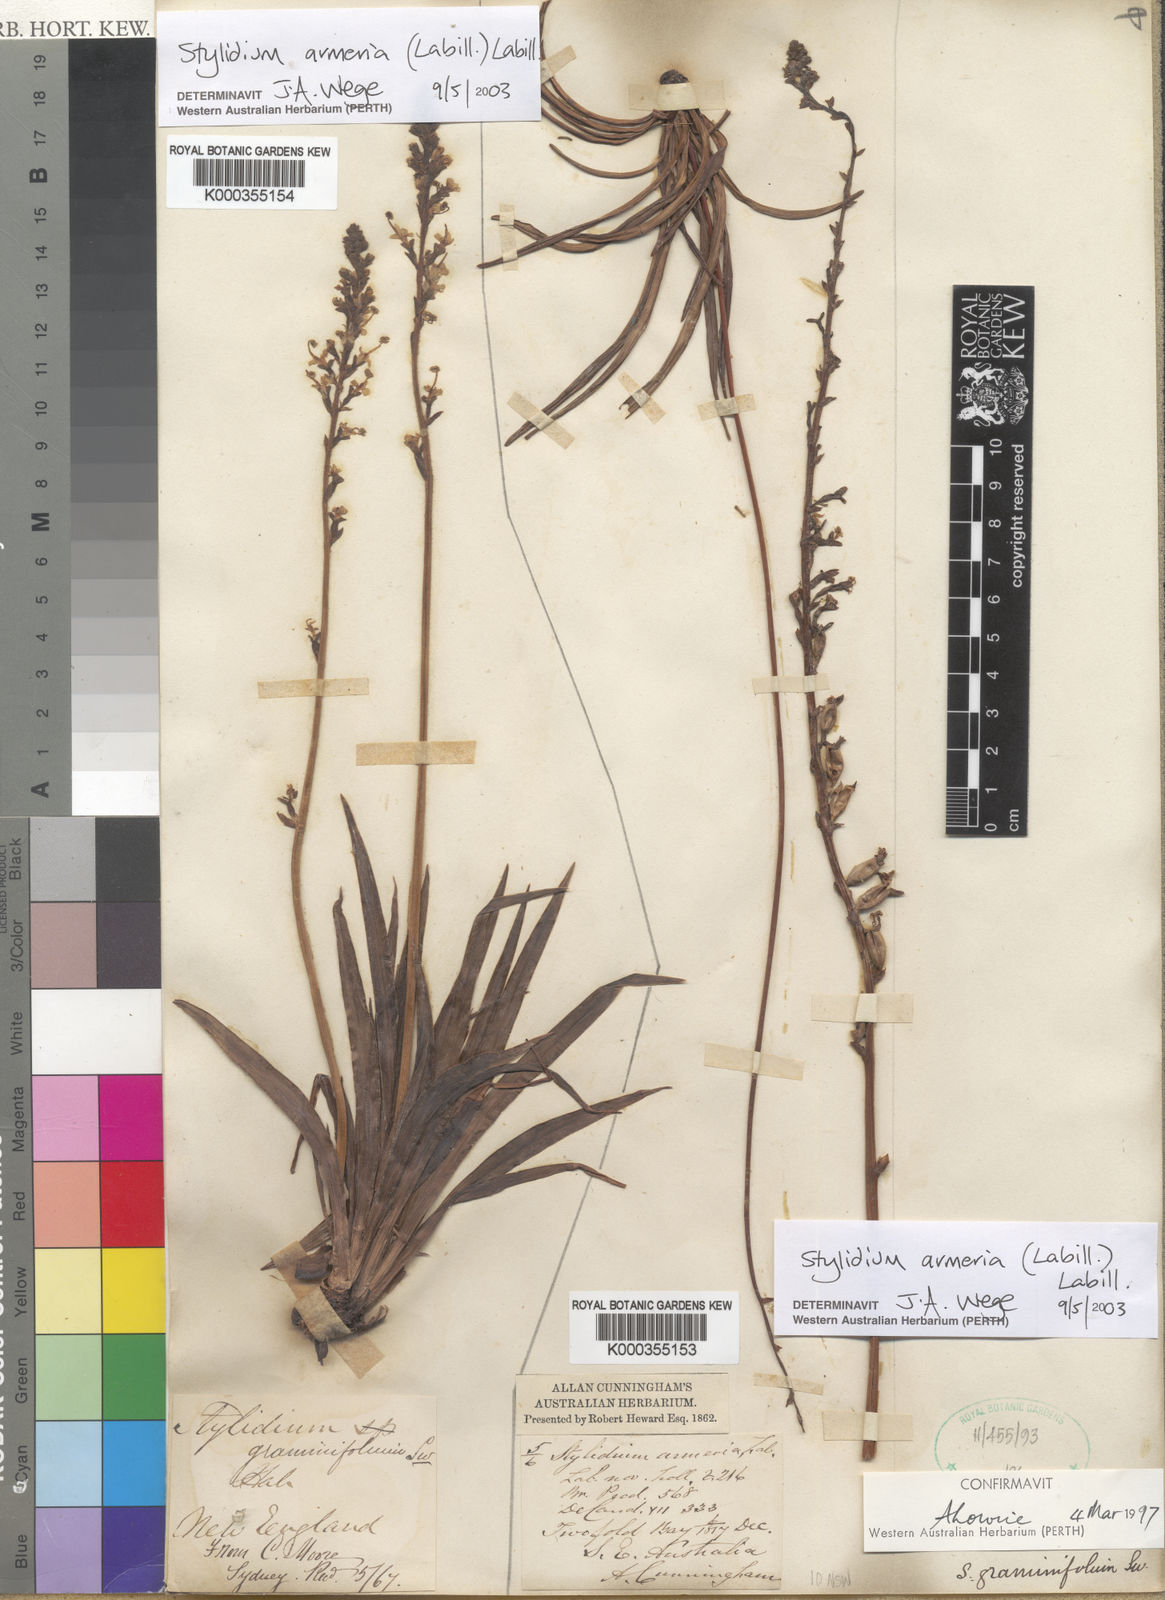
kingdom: Plantae
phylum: Tracheophyta
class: Magnoliopsida
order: Asterales
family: Stylidiaceae
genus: Stylidium
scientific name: Stylidium armeria
